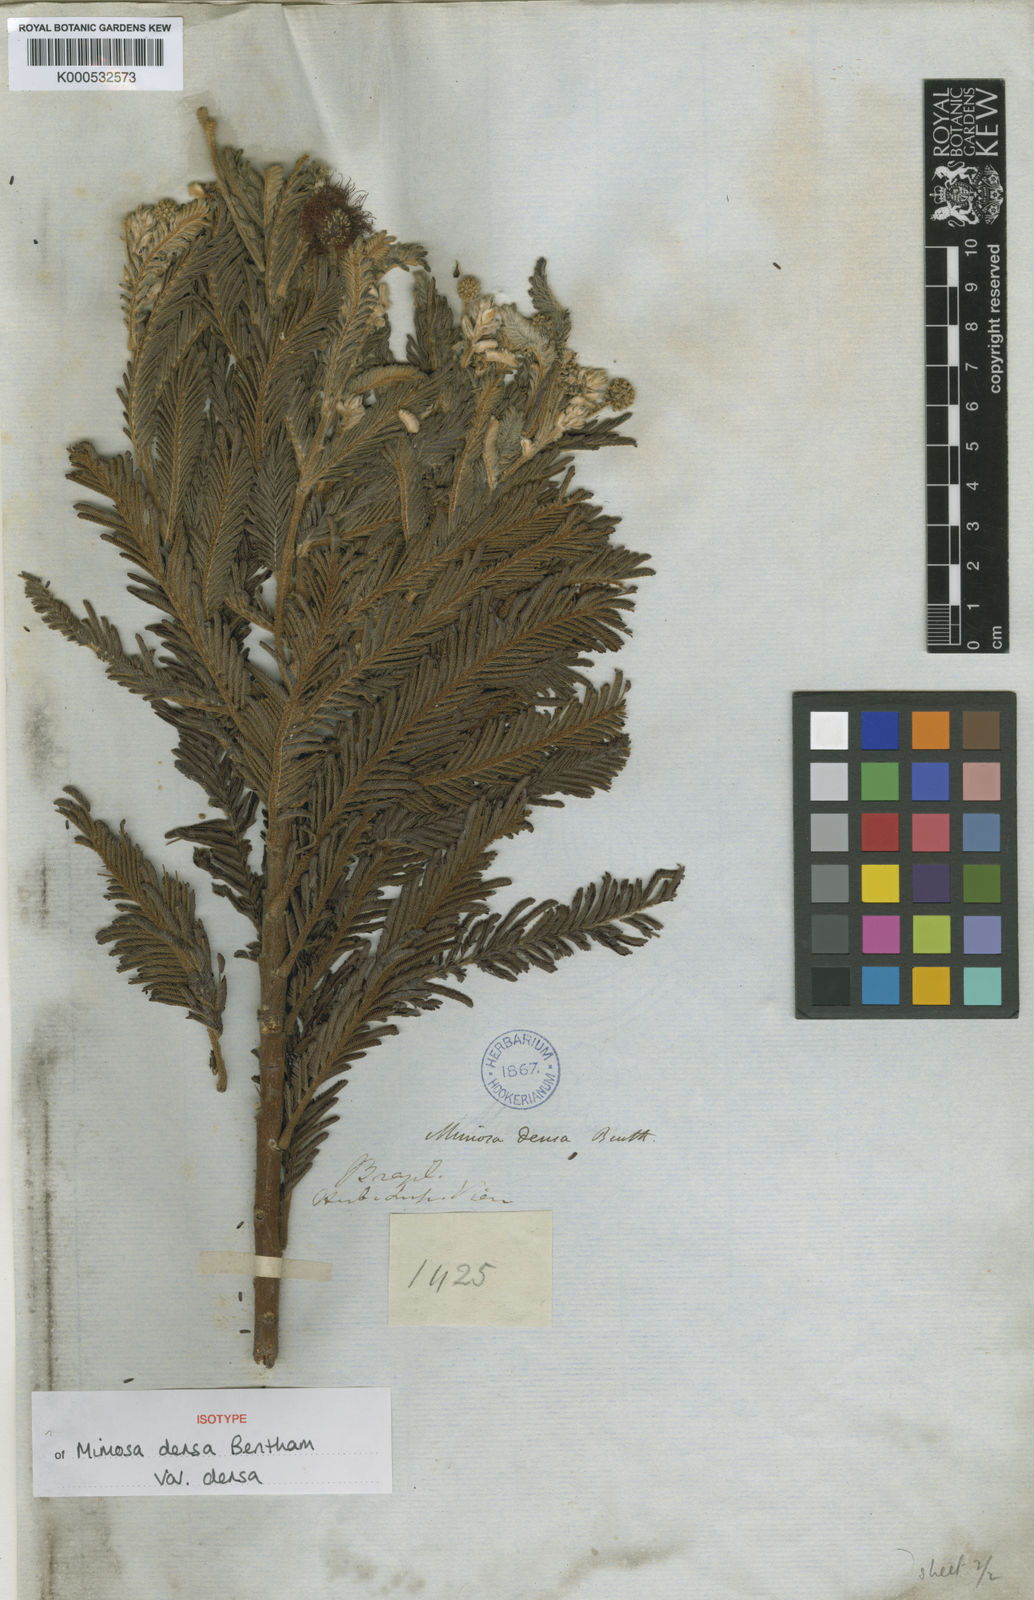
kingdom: Plantae
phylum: Tracheophyta
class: Magnoliopsida
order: Fabales
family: Fabaceae
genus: Mimosa
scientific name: Mimosa densa
